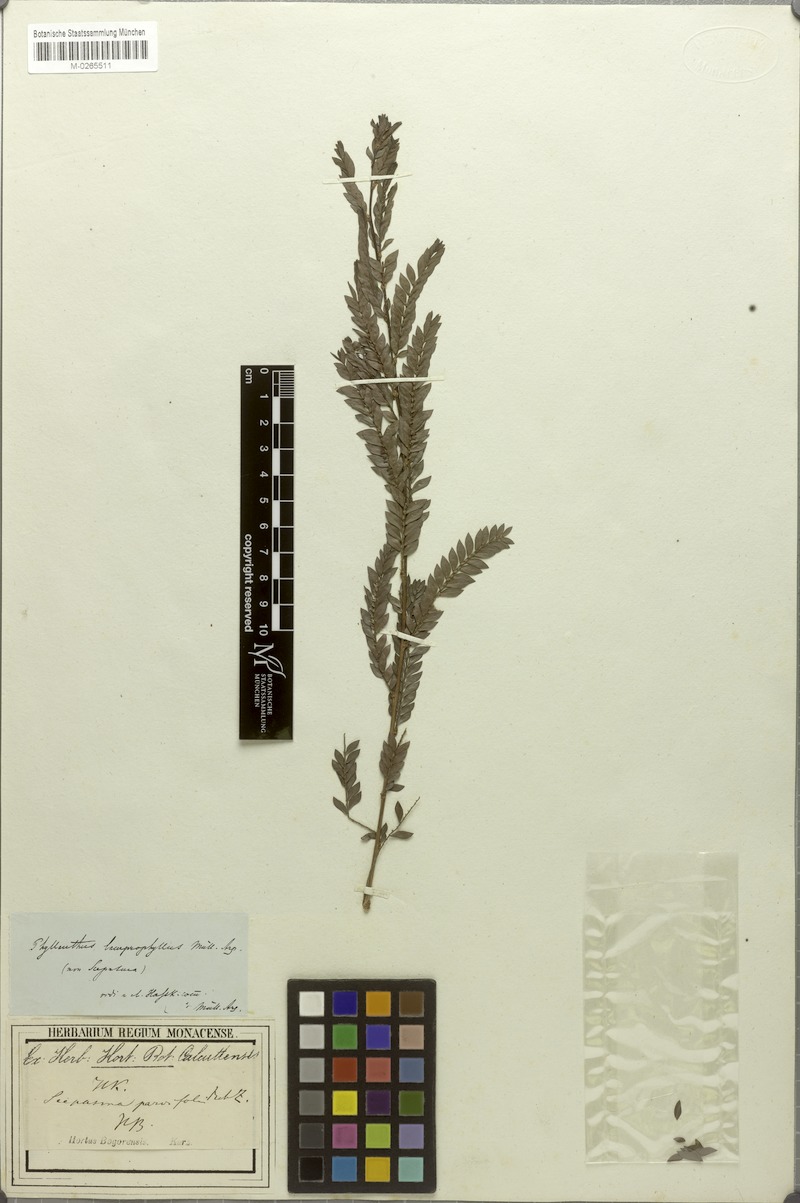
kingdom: Plantae
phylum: Tracheophyta
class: Magnoliopsida
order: Malpighiales
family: Phyllanthaceae
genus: Glochidion
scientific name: Glochidion lamprophyllum
